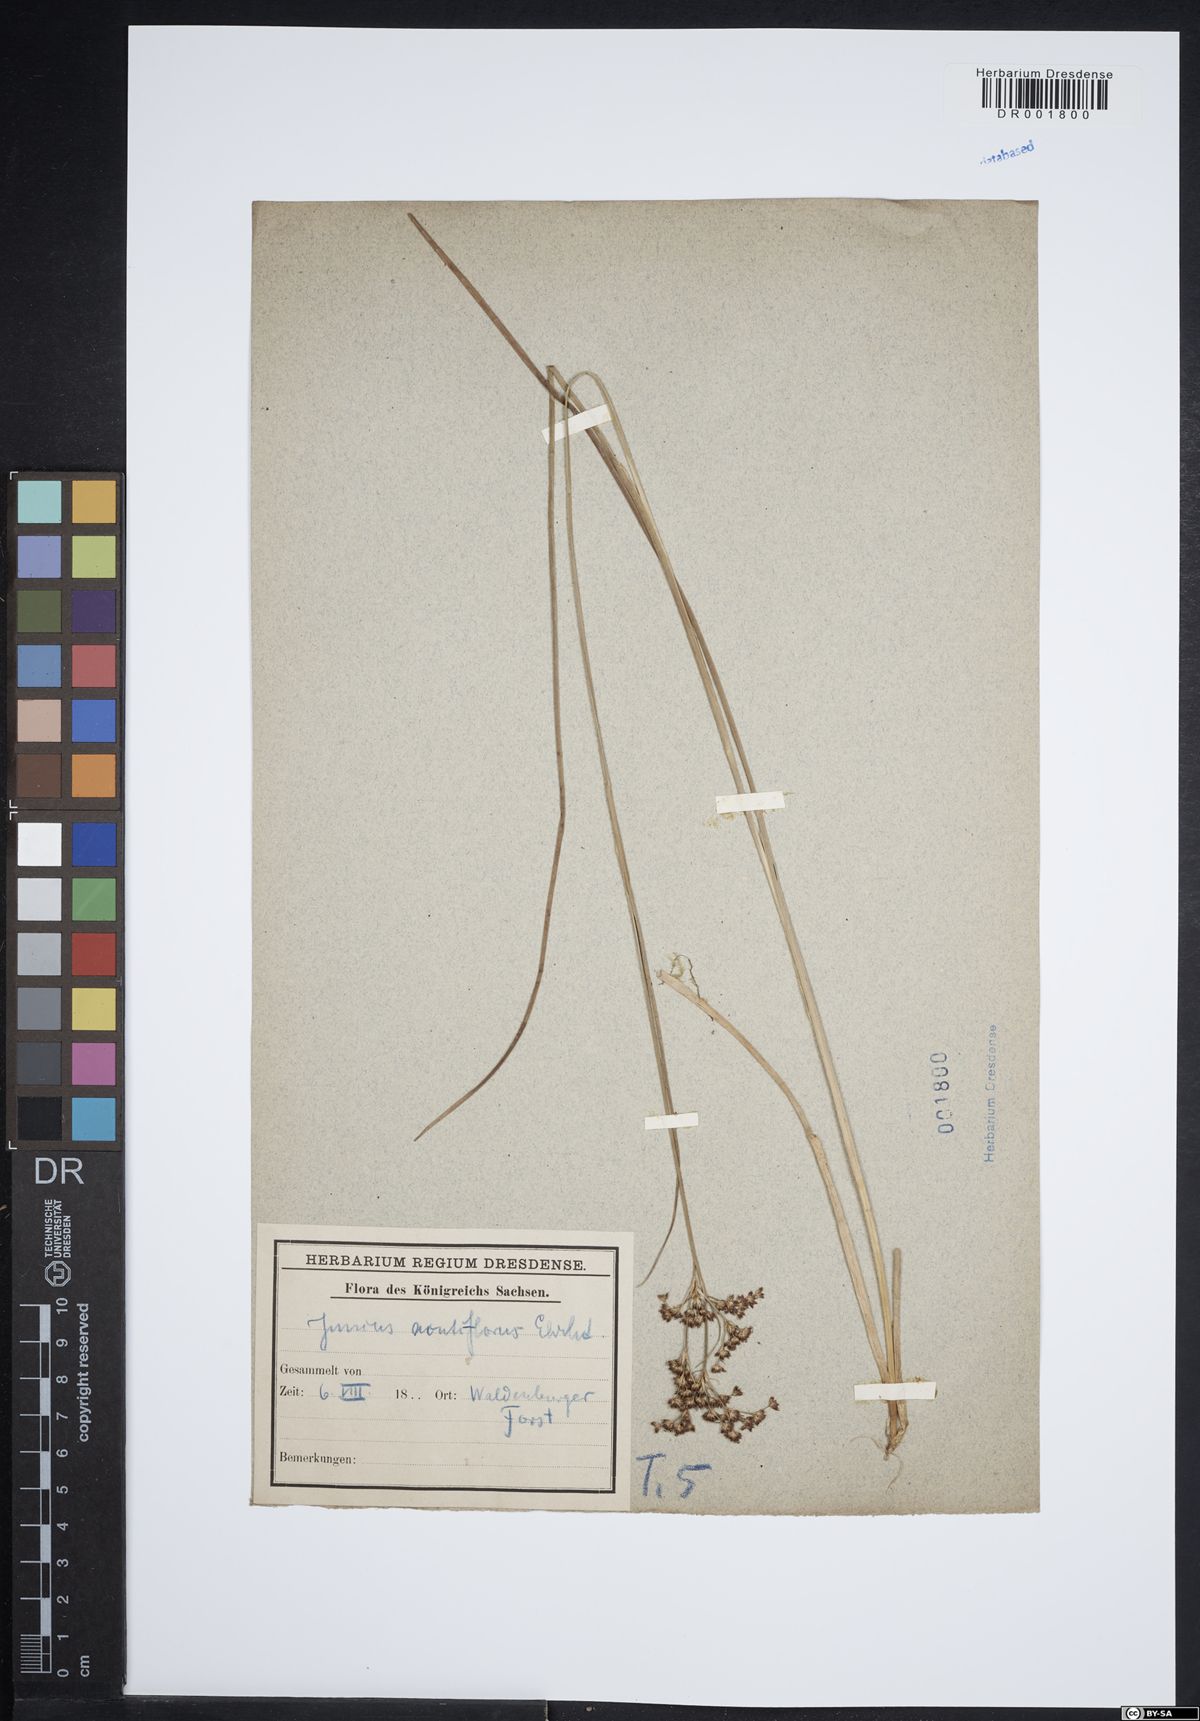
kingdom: Plantae
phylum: Tracheophyta
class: Liliopsida
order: Poales
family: Juncaceae
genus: Juncus
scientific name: Juncus acutiflorus
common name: Sharp-flowered rush
